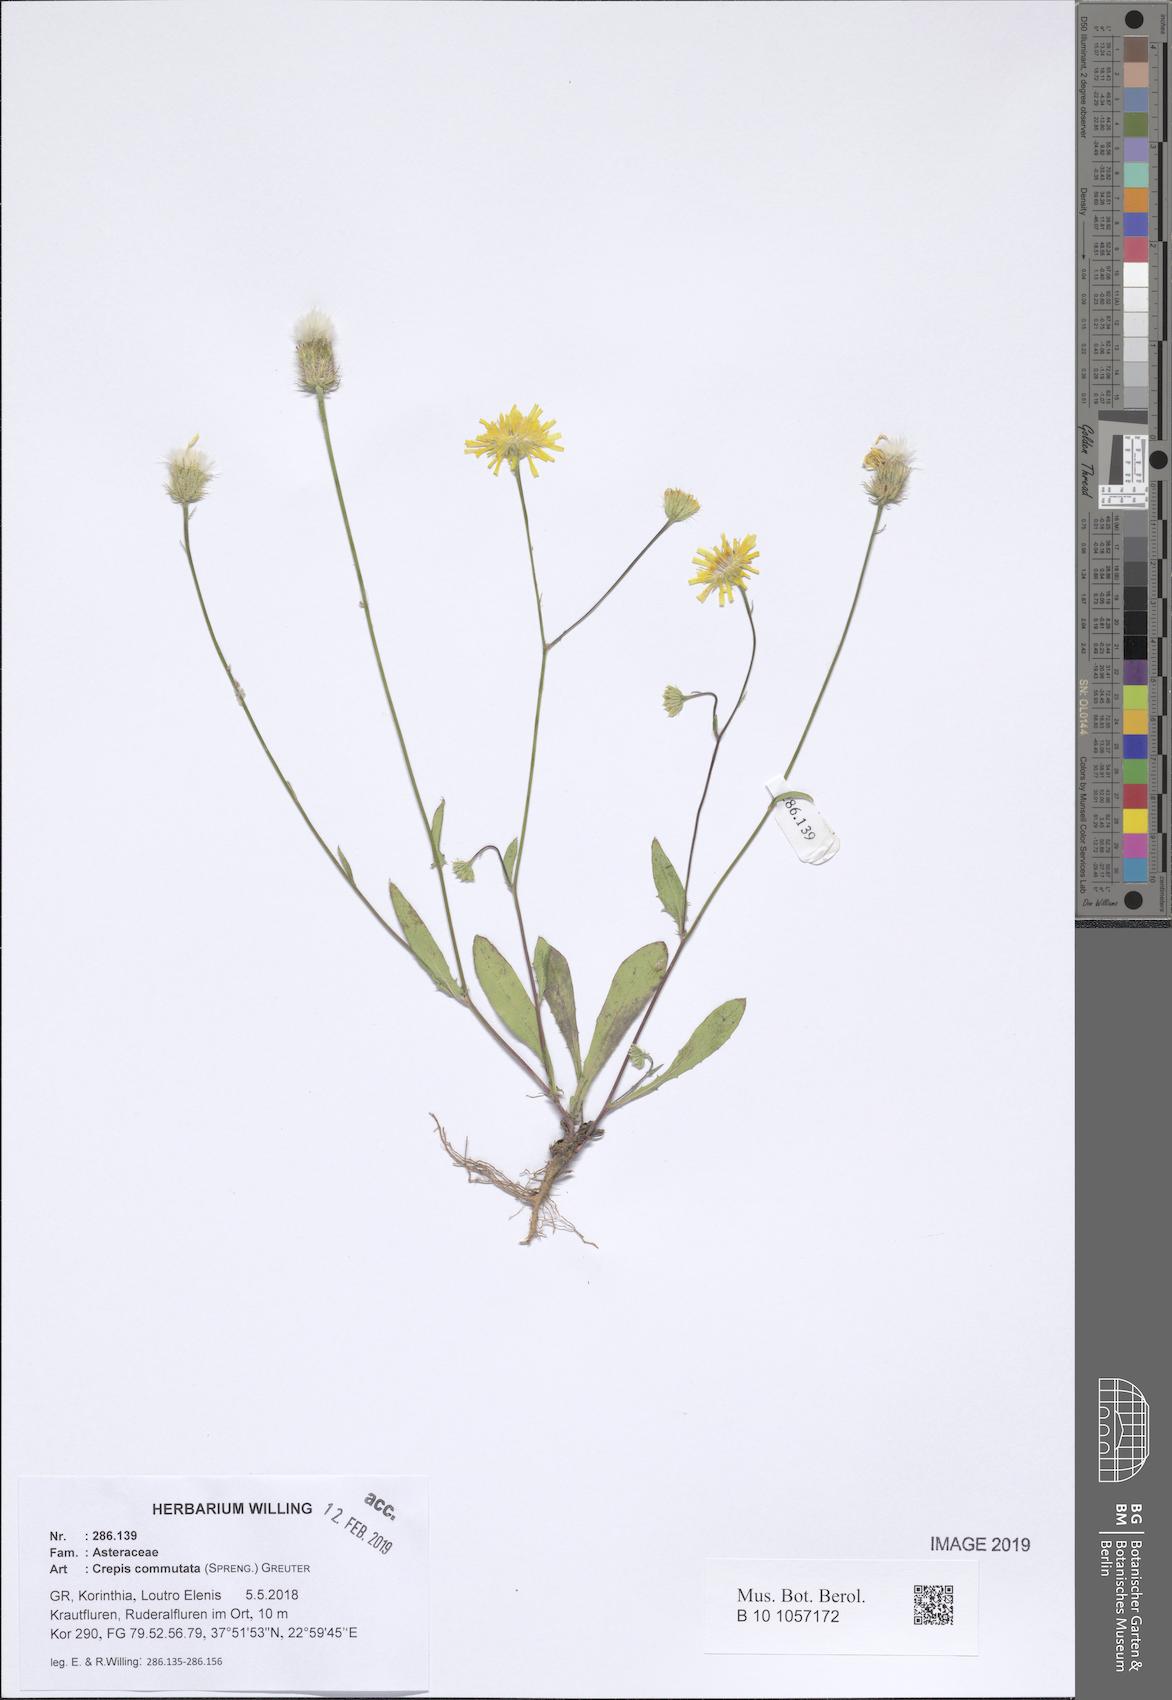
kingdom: Plantae
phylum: Tracheophyta
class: Magnoliopsida
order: Asterales
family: Asteraceae
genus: Crepis
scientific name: Crepis commutata
